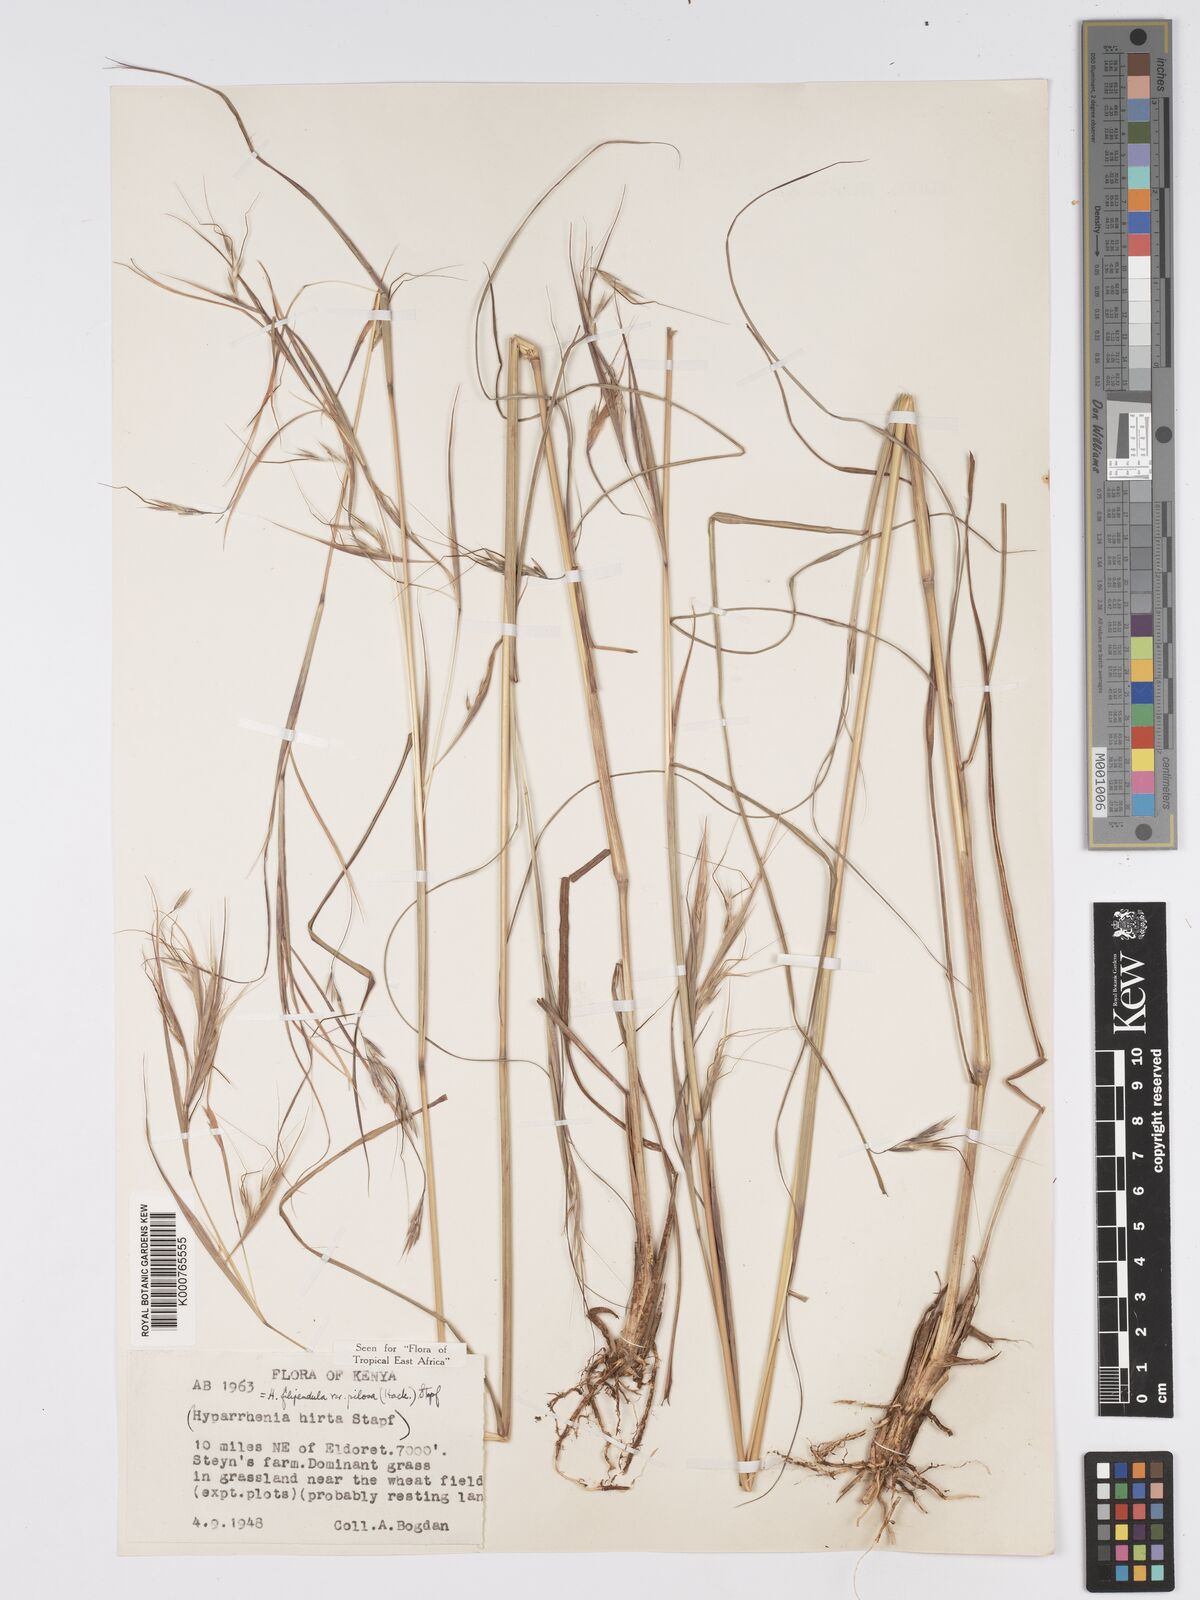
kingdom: Plantae
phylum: Tracheophyta
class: Liliopsida
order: Poales
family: Poaceae
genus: Hyparrhenia
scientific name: Hyparrhenia filipendula
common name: Tambookie grass
